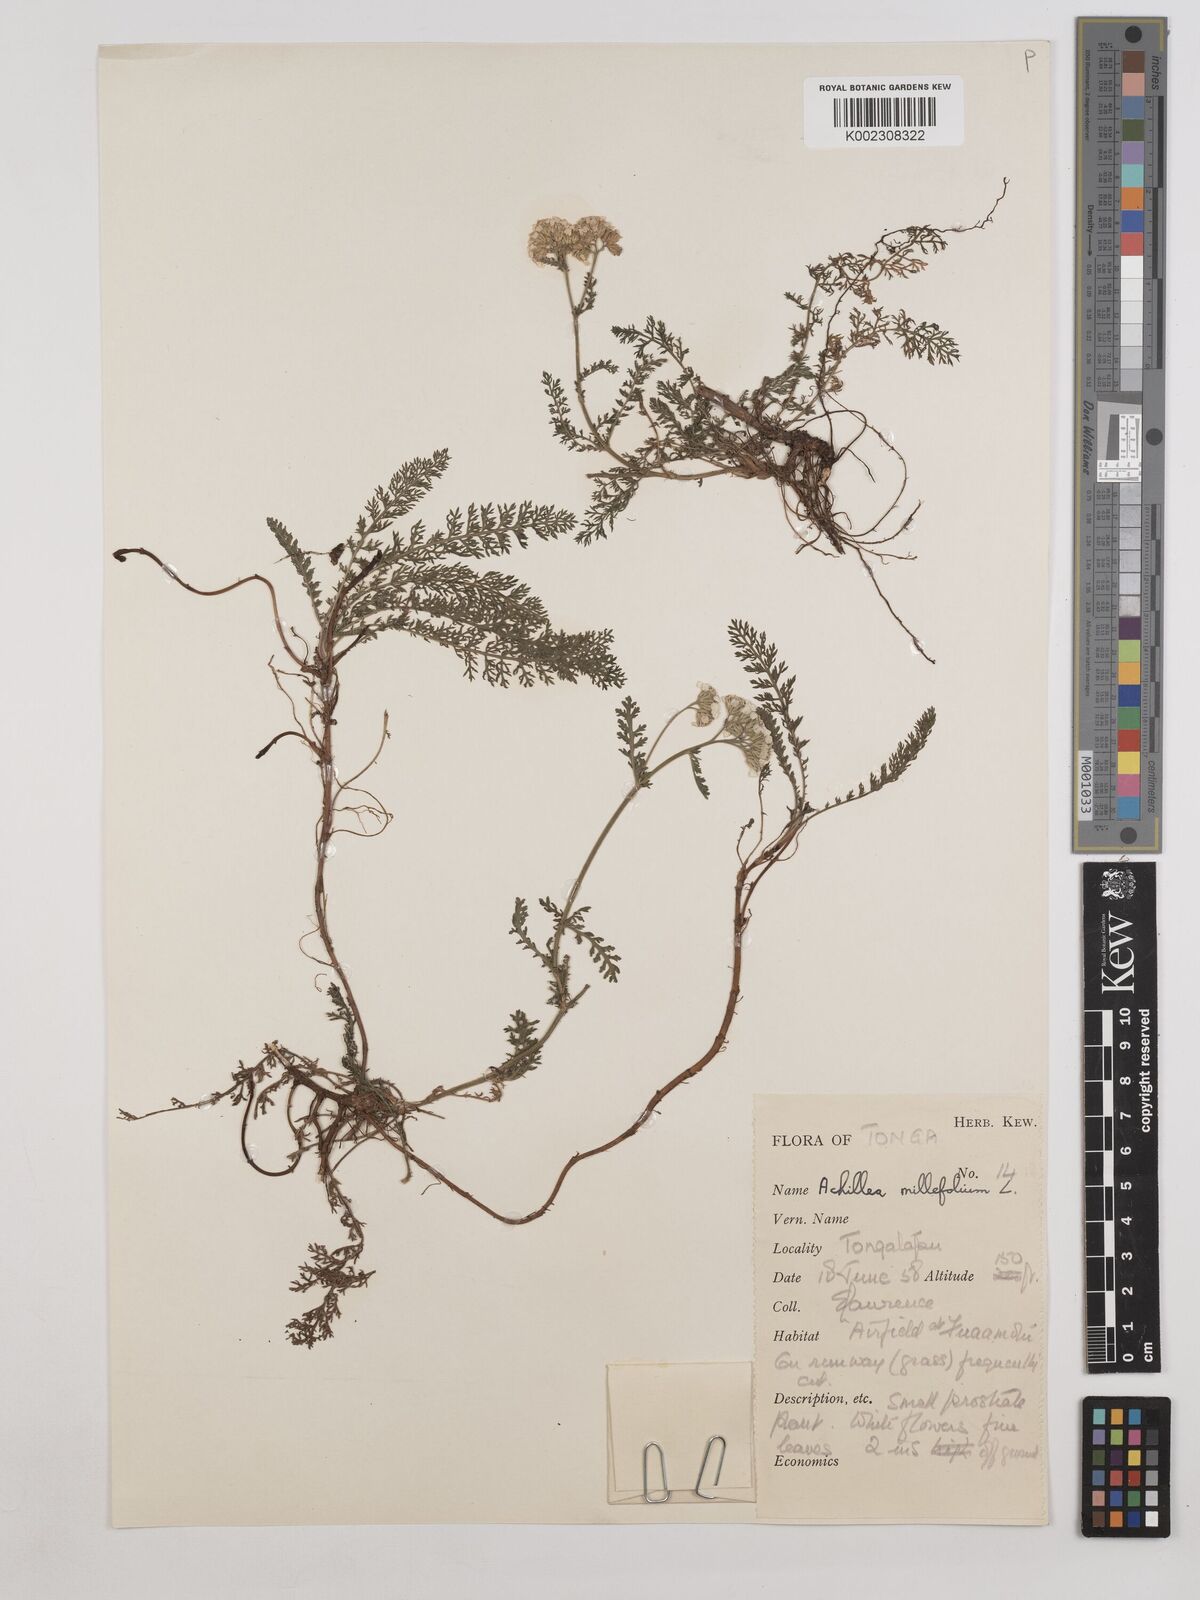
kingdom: Plantae
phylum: Tracheophyta
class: Magnoliopsida
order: Asterales
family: Asteraceae
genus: Achillea
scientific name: Achillea millefolium
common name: Yarrow
